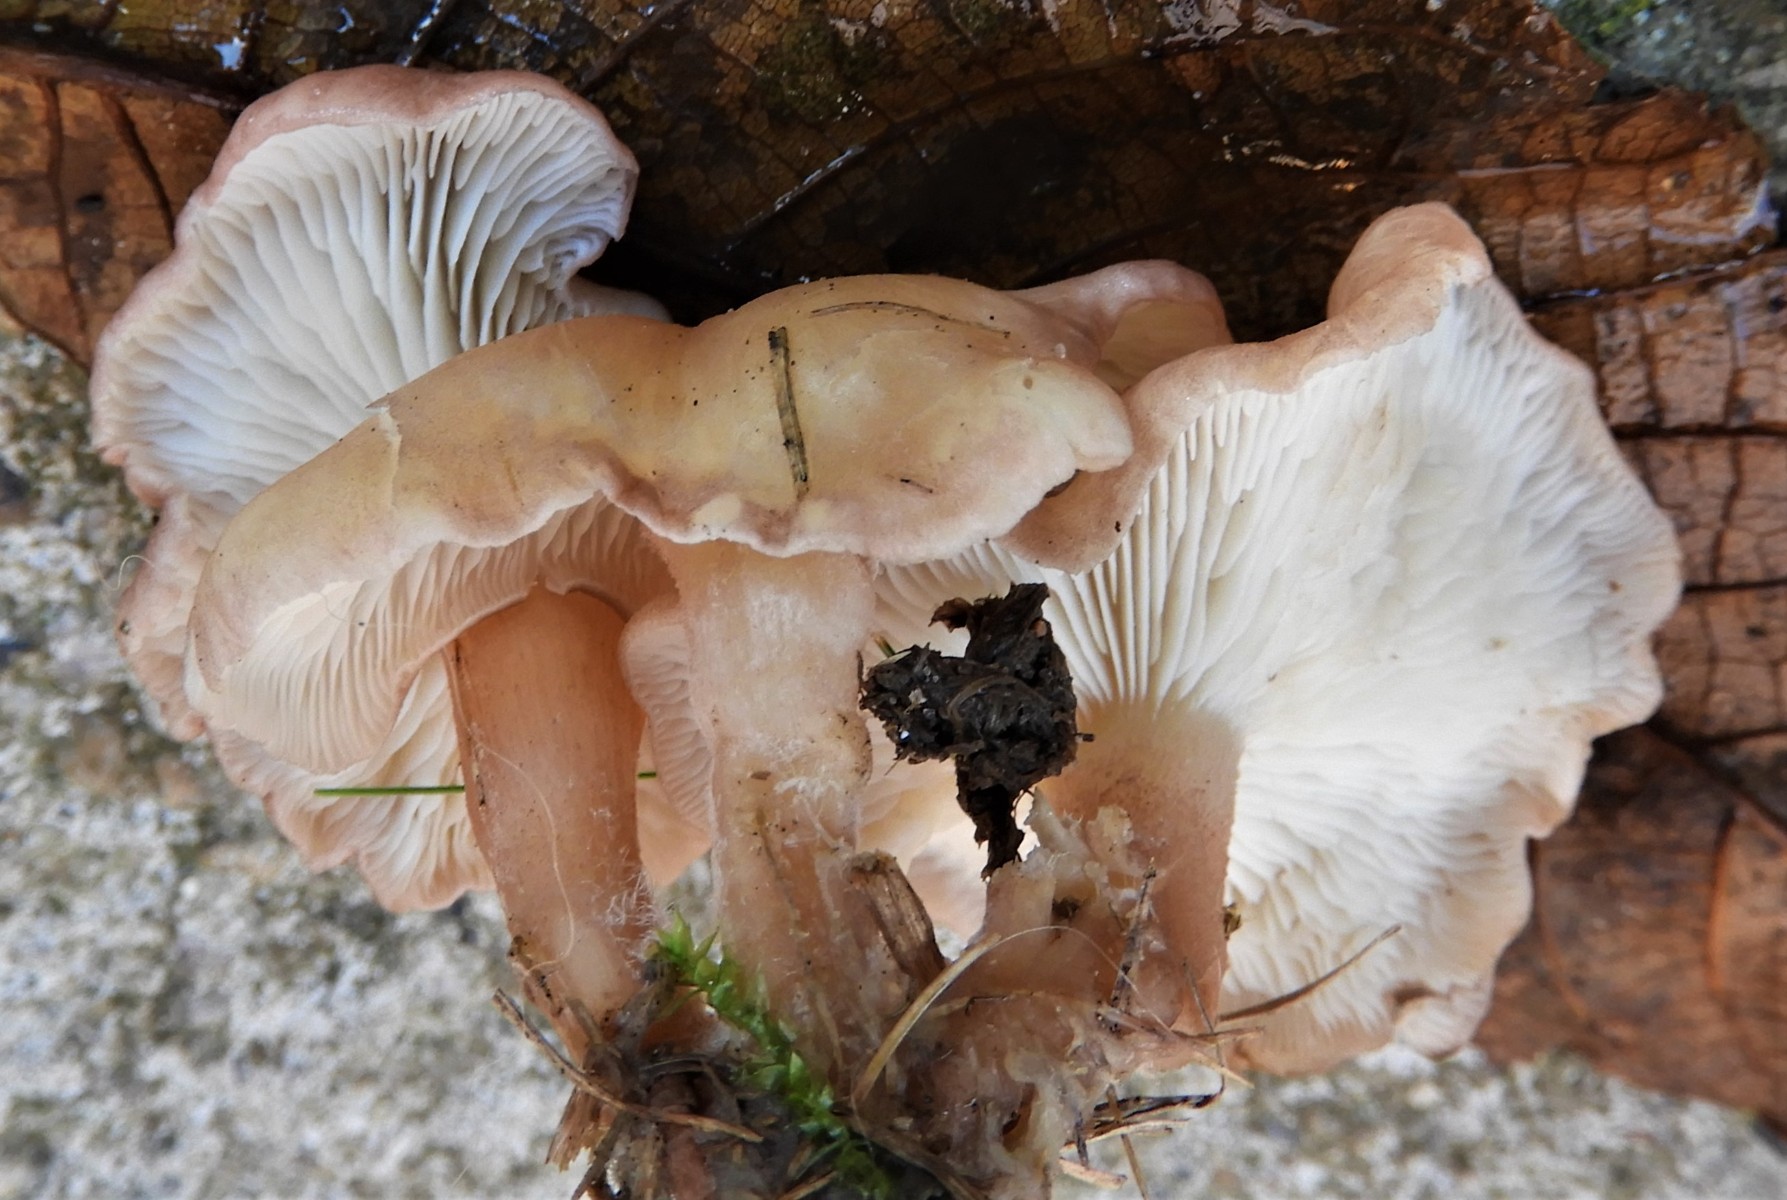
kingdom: Fungi
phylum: Basidiomycota
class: Agaricomycetes
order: Agaricales
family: Lyophyllaceae
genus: Calocybe
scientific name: Calocybe carnea
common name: rosa fagerhat
